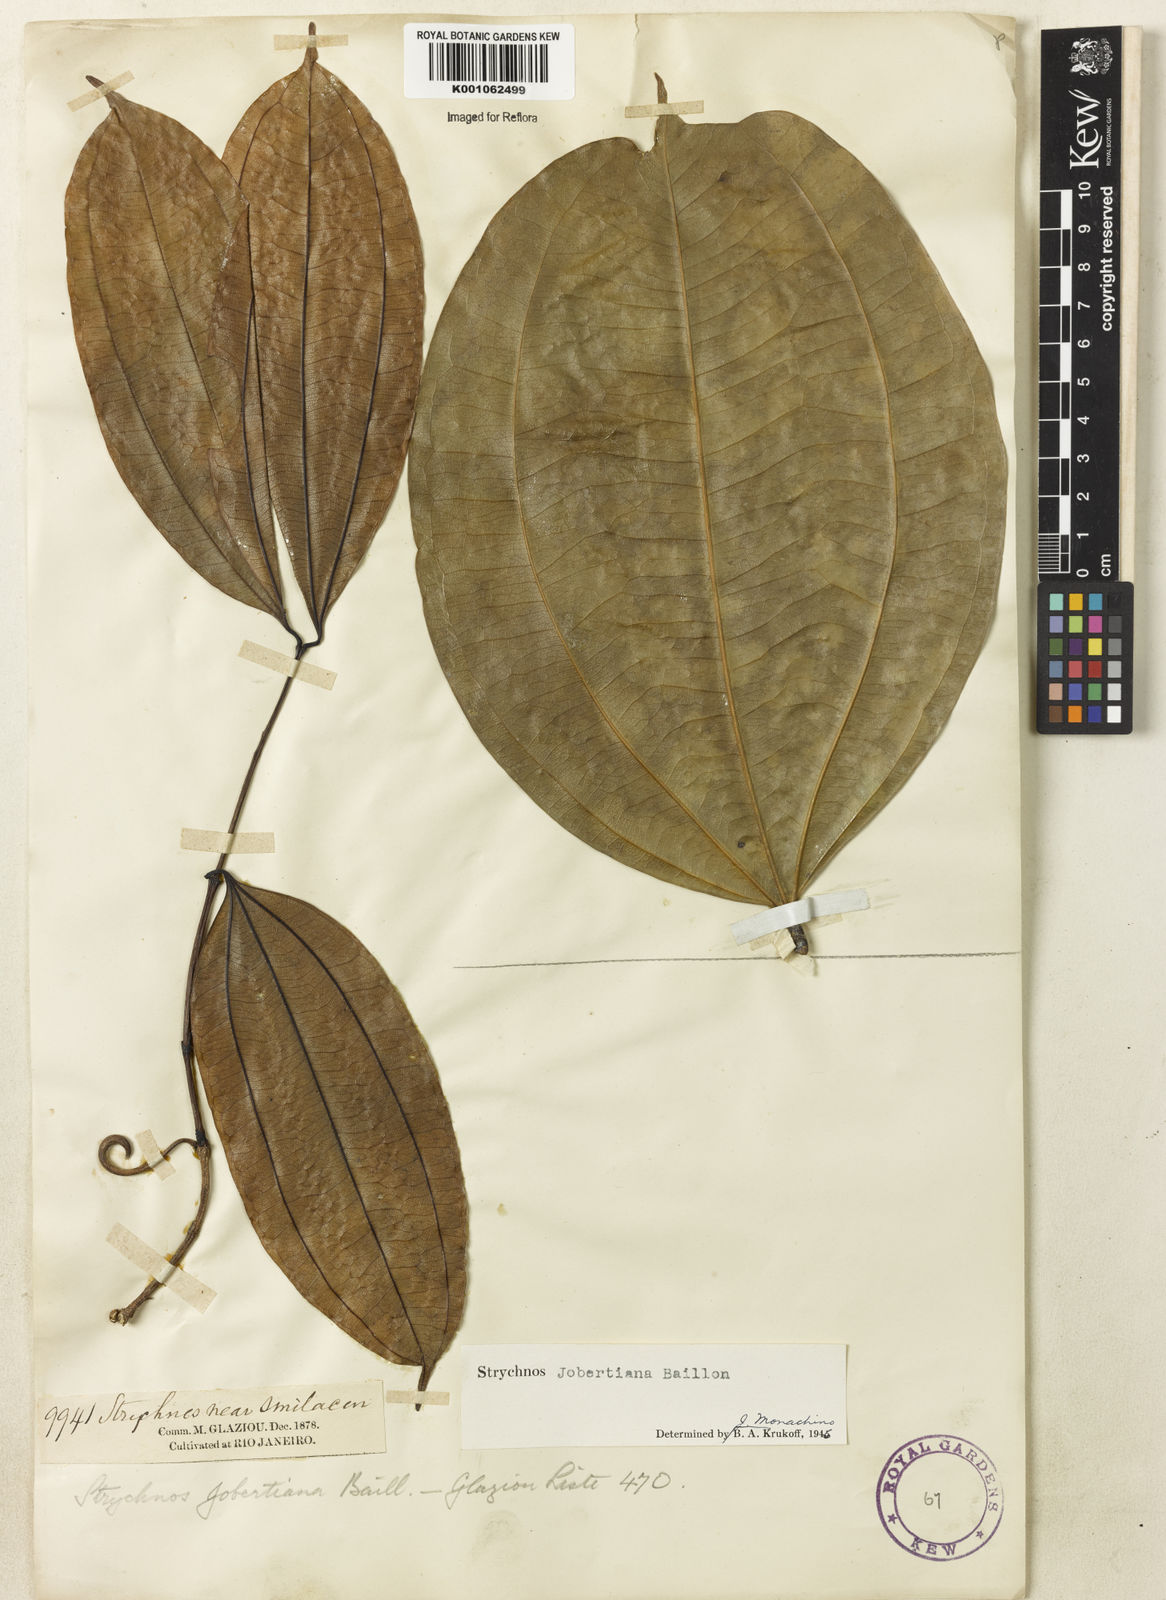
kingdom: Plantae
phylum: Tracheophyta
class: Magnoliopsida
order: Gentianales
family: Loganiaceae
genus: Strychnos
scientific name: Strychnos jobertiana
